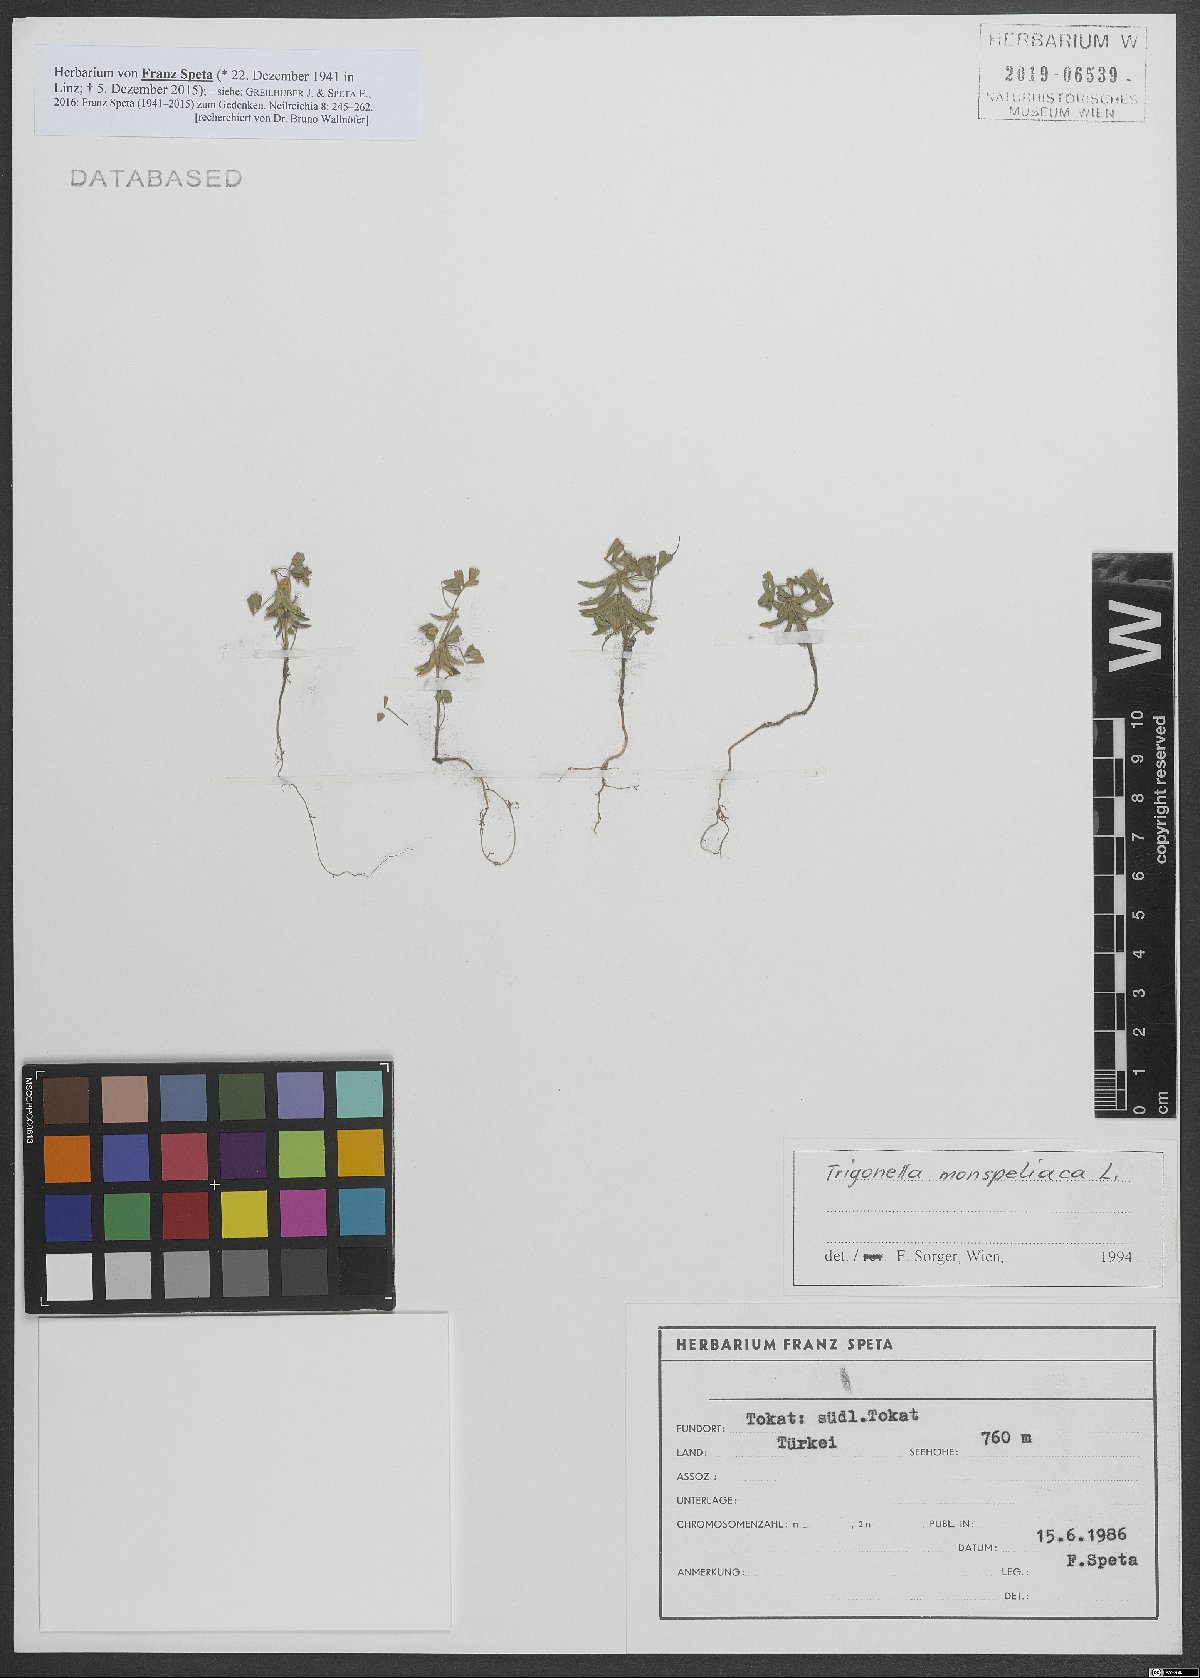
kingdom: Plantae
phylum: Tracheophyta
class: Magnoliopsida
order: Fabales
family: Fabaceae
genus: Medicago
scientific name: Medicago monspeliaca
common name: Hairy medick
